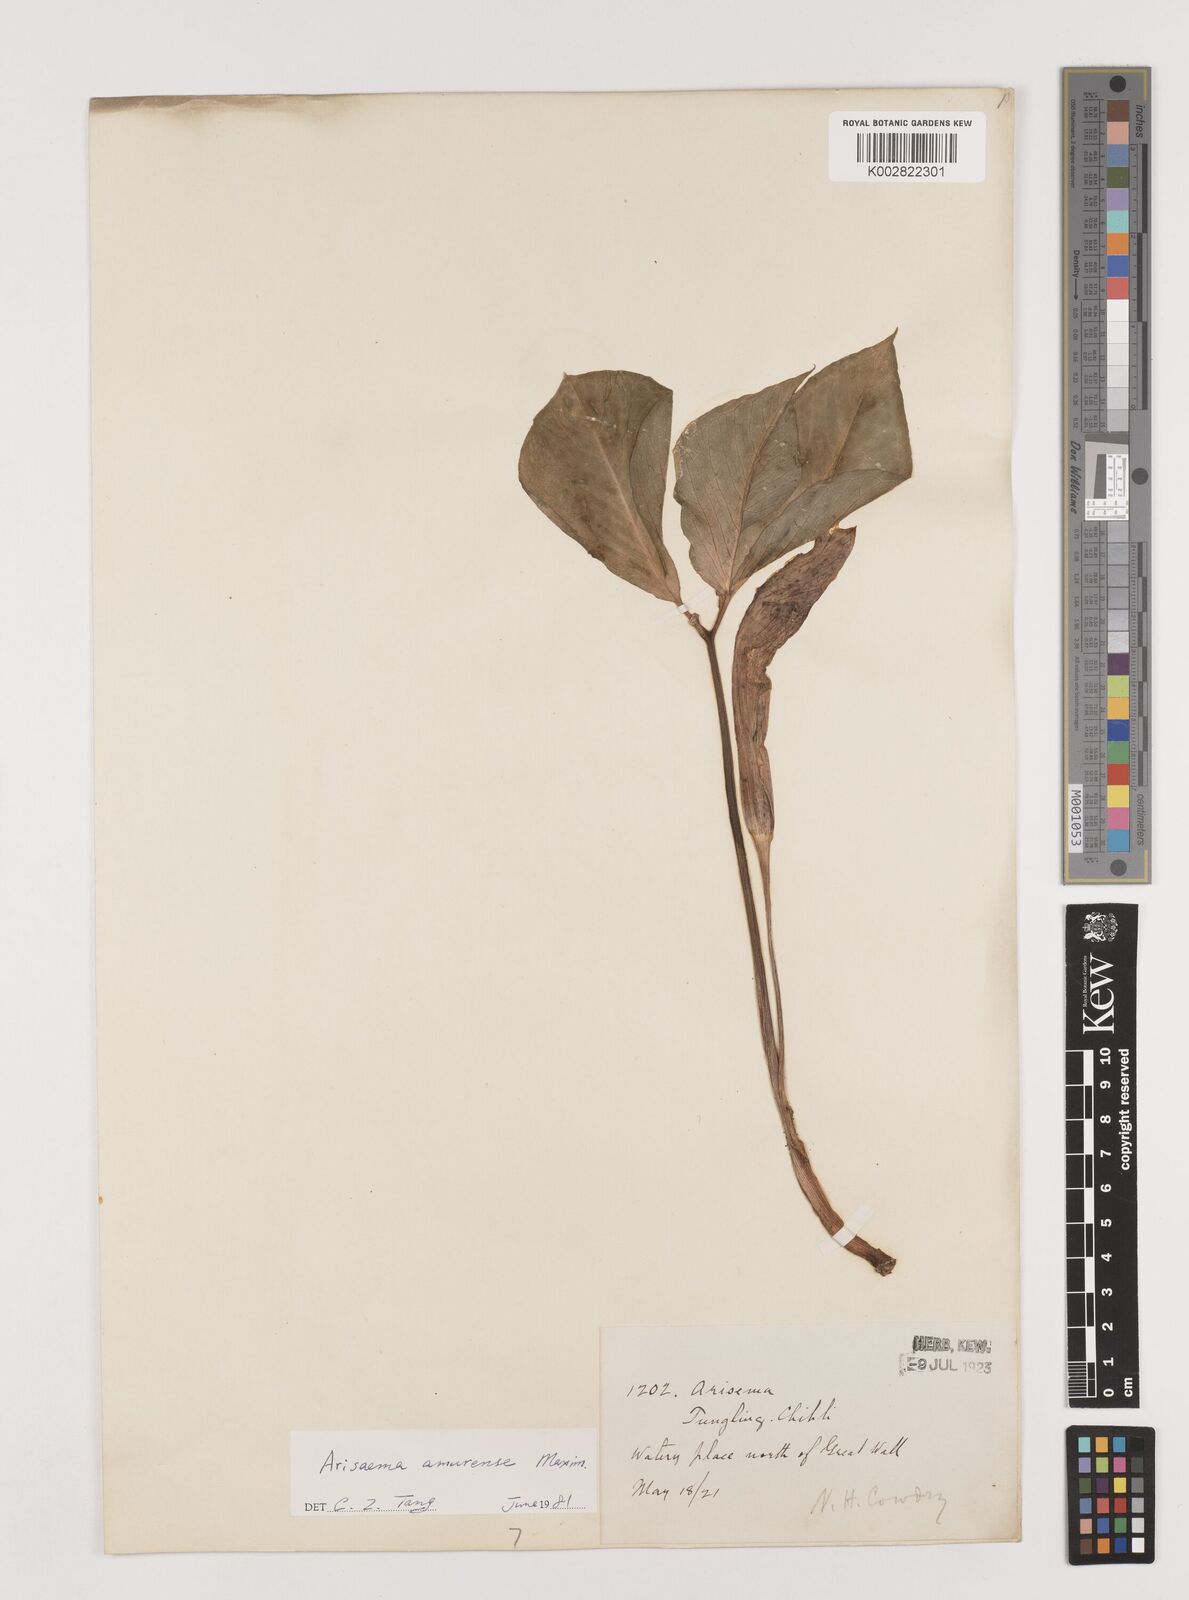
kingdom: Plantae
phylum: Tracheophyta
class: Liliopsida
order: Alismatales
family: Araceae
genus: Arisaema
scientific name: Arisaema amurense
